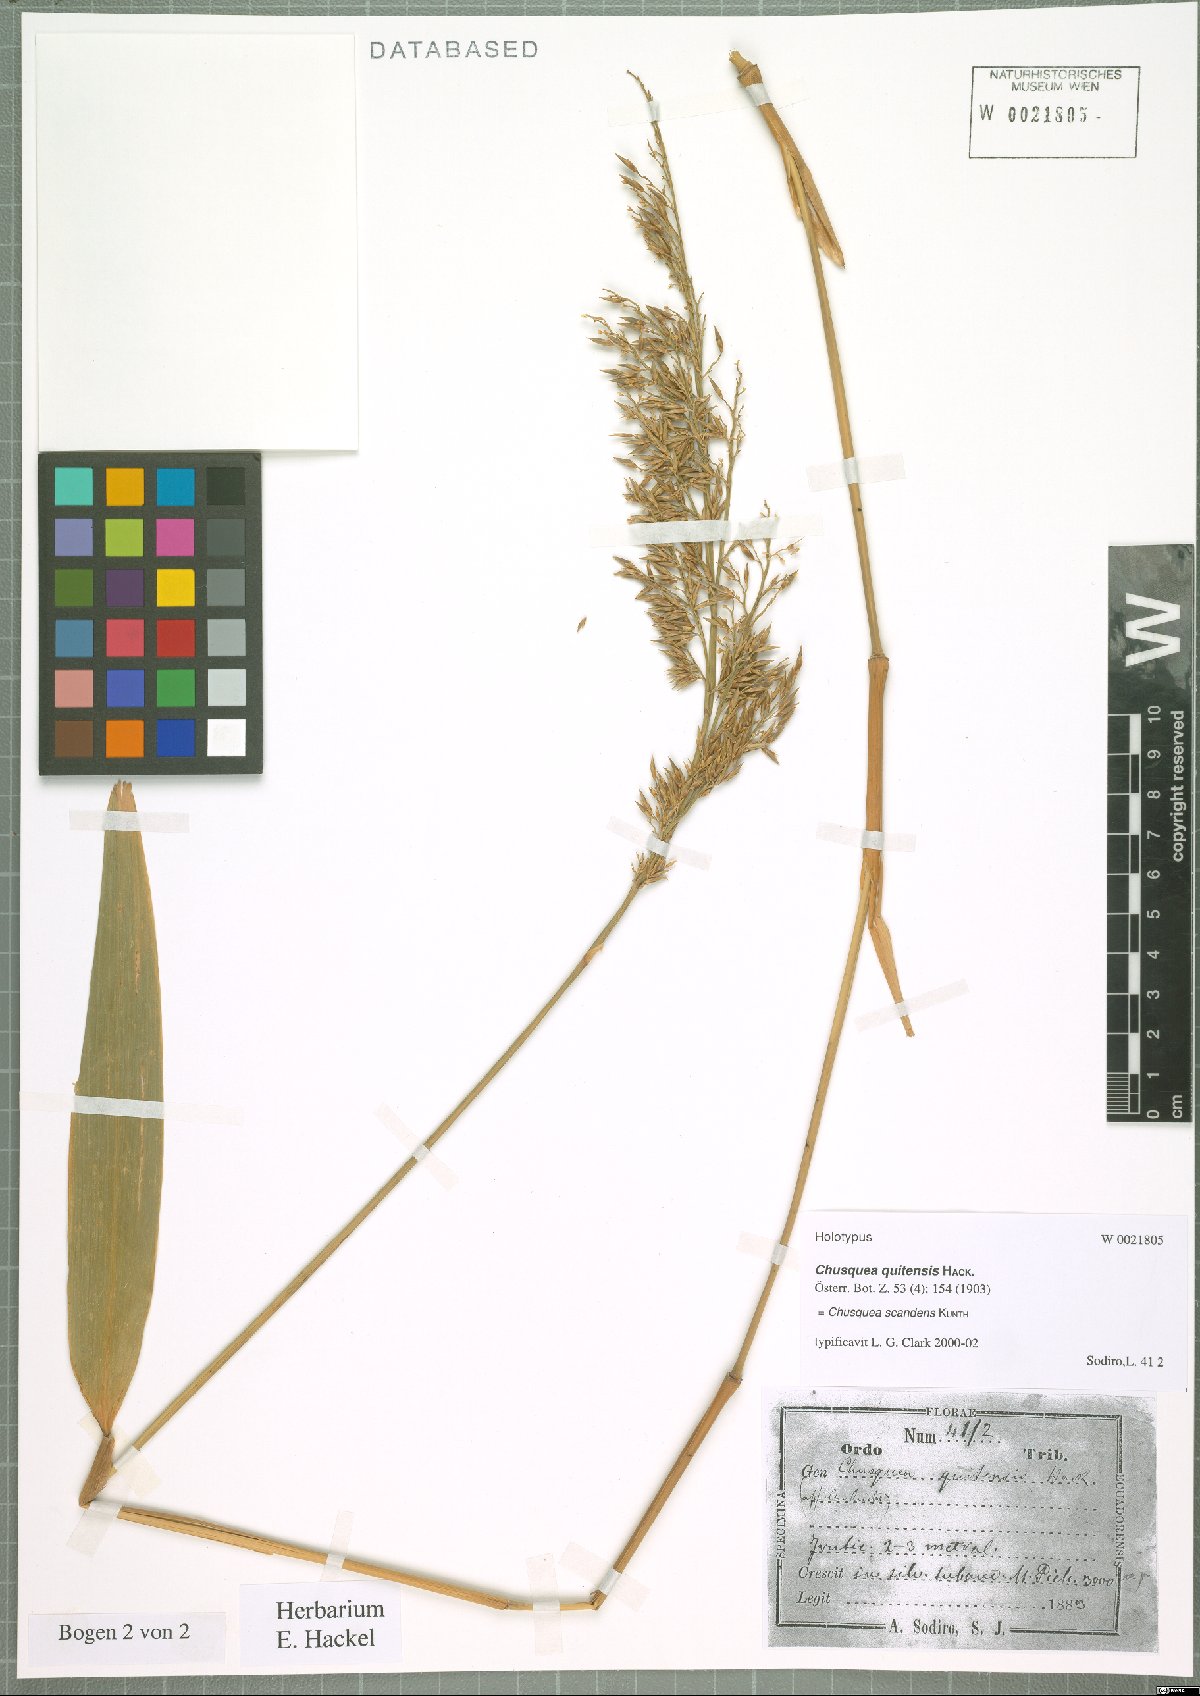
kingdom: Plantae
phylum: Tracheophyta
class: Liliopsida
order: Poales
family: Poaceae
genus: Chusquea
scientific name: Chusquea scandens
